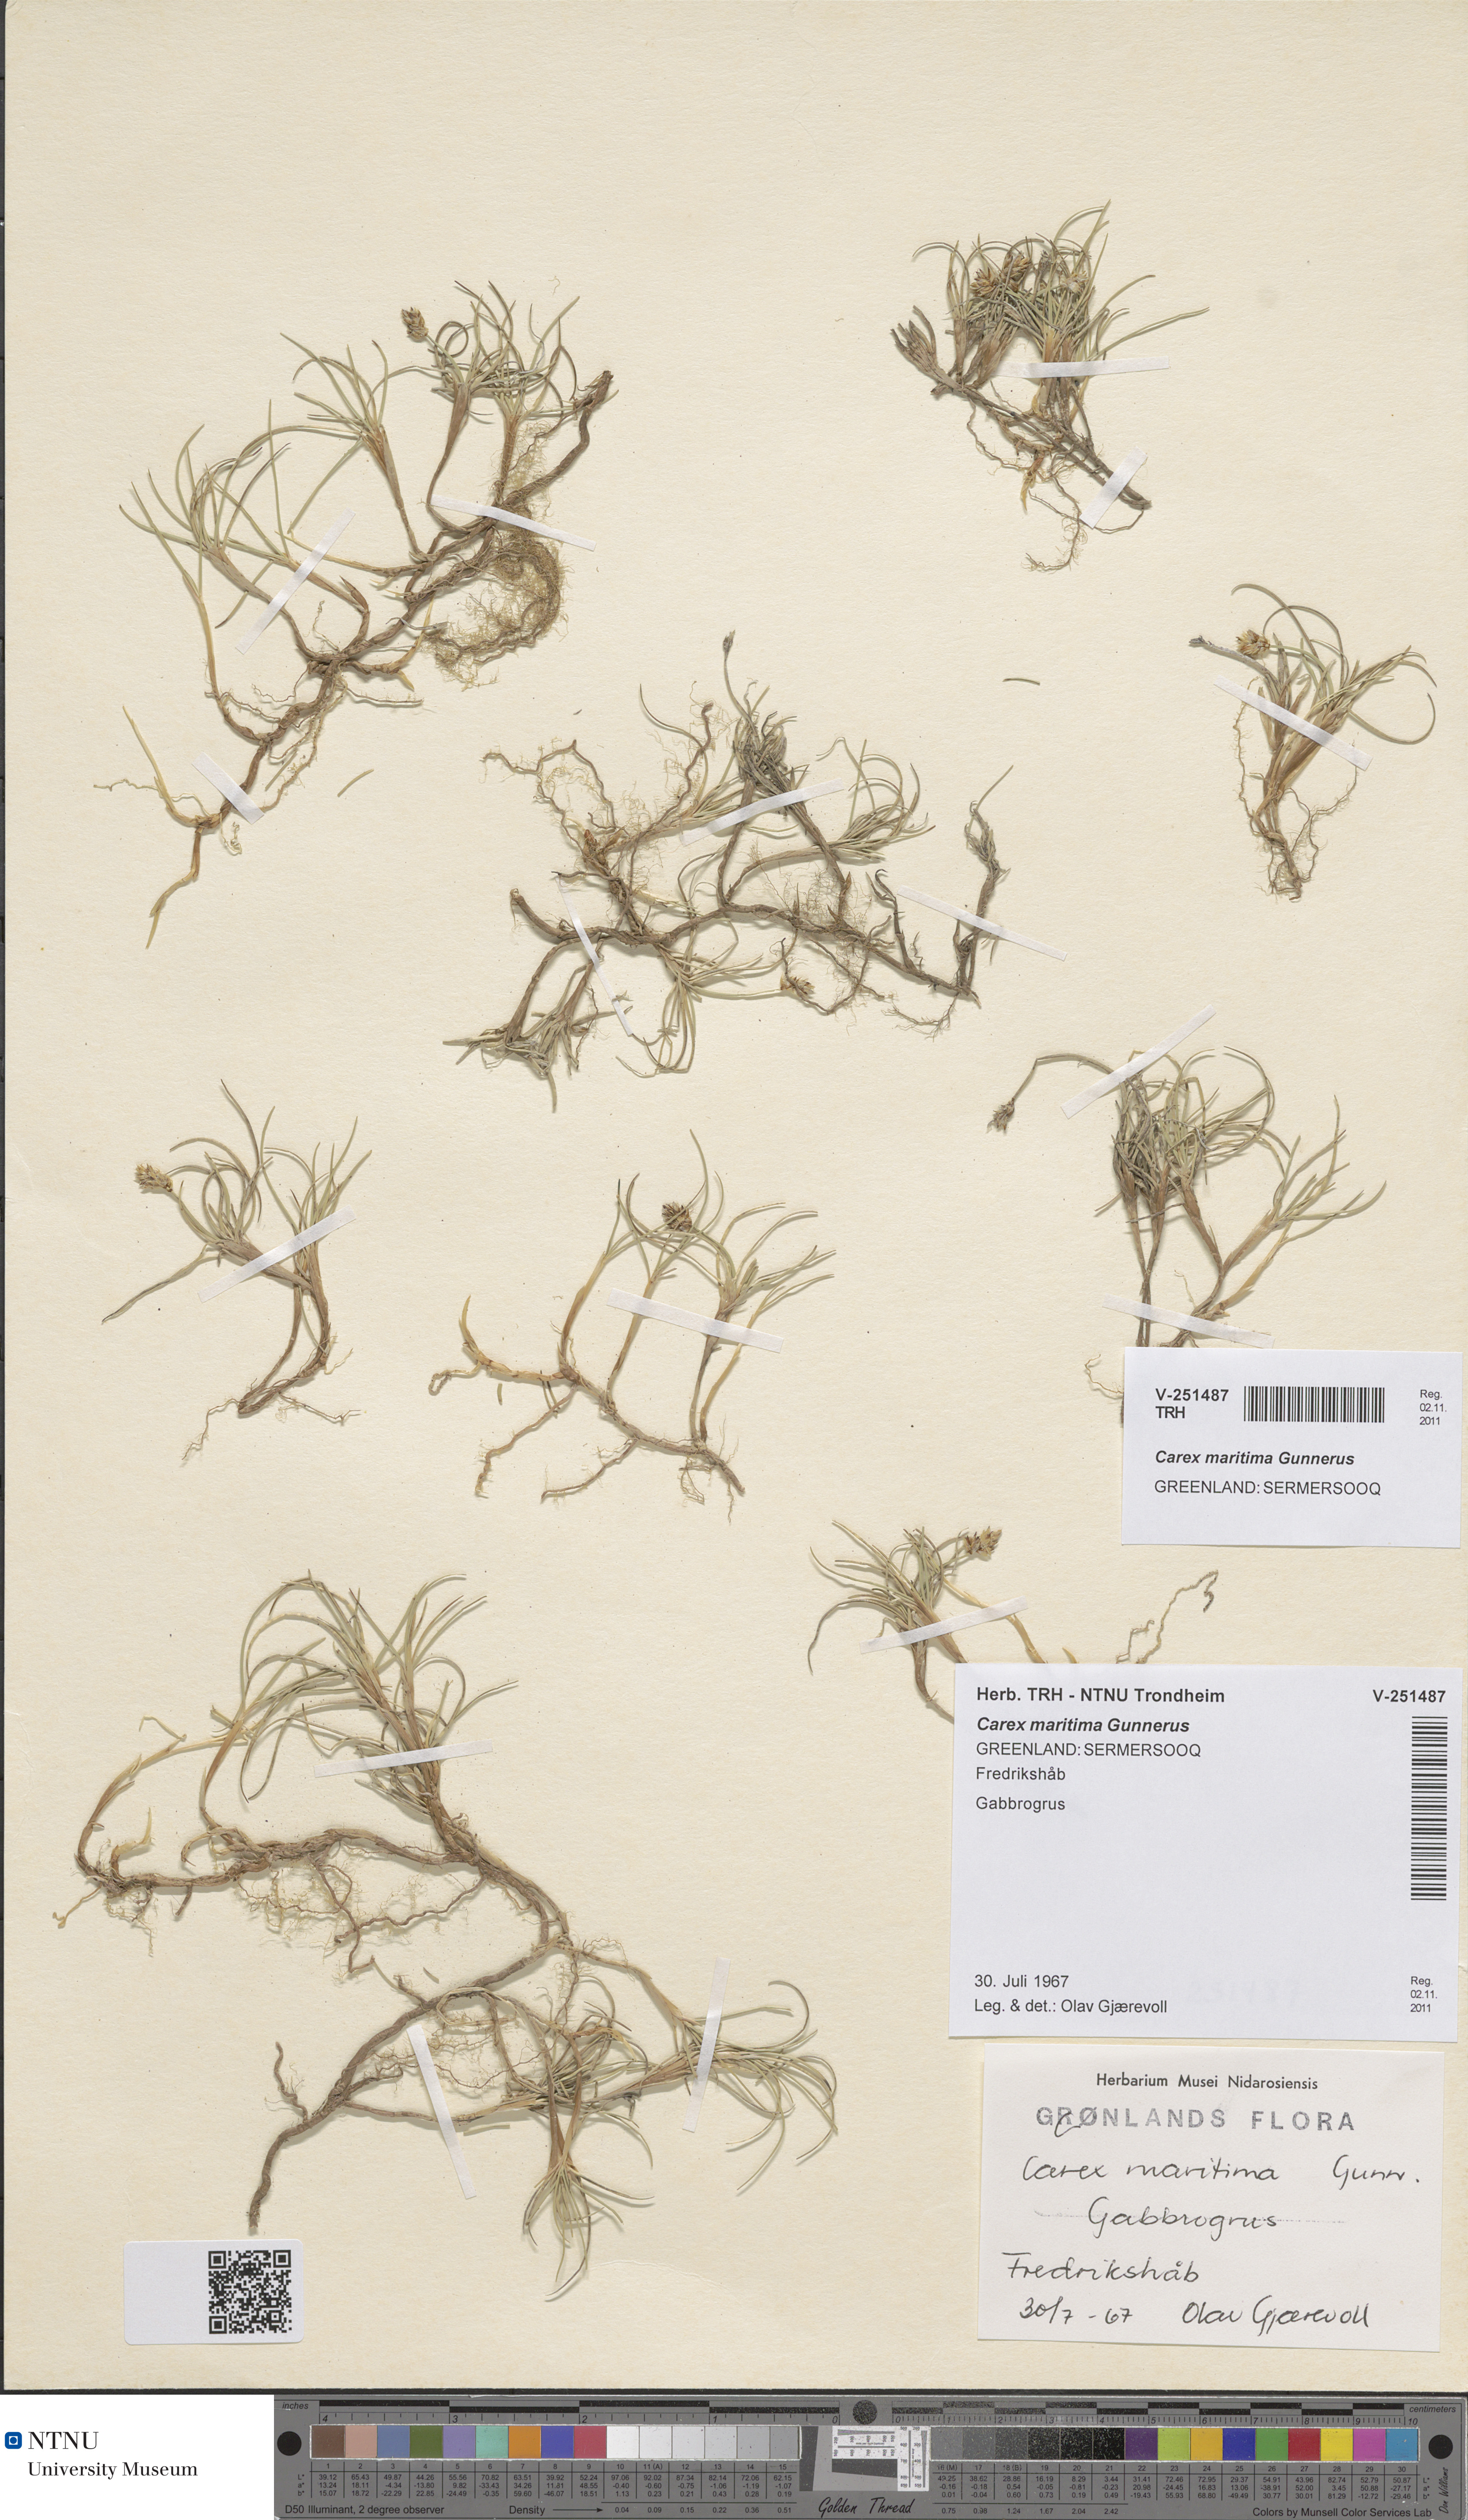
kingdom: Plantae
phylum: Tracheophyta
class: Liliopsida
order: Poales
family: Cyperaceae
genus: Carex
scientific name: Carex maritima
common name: Curved sedge
